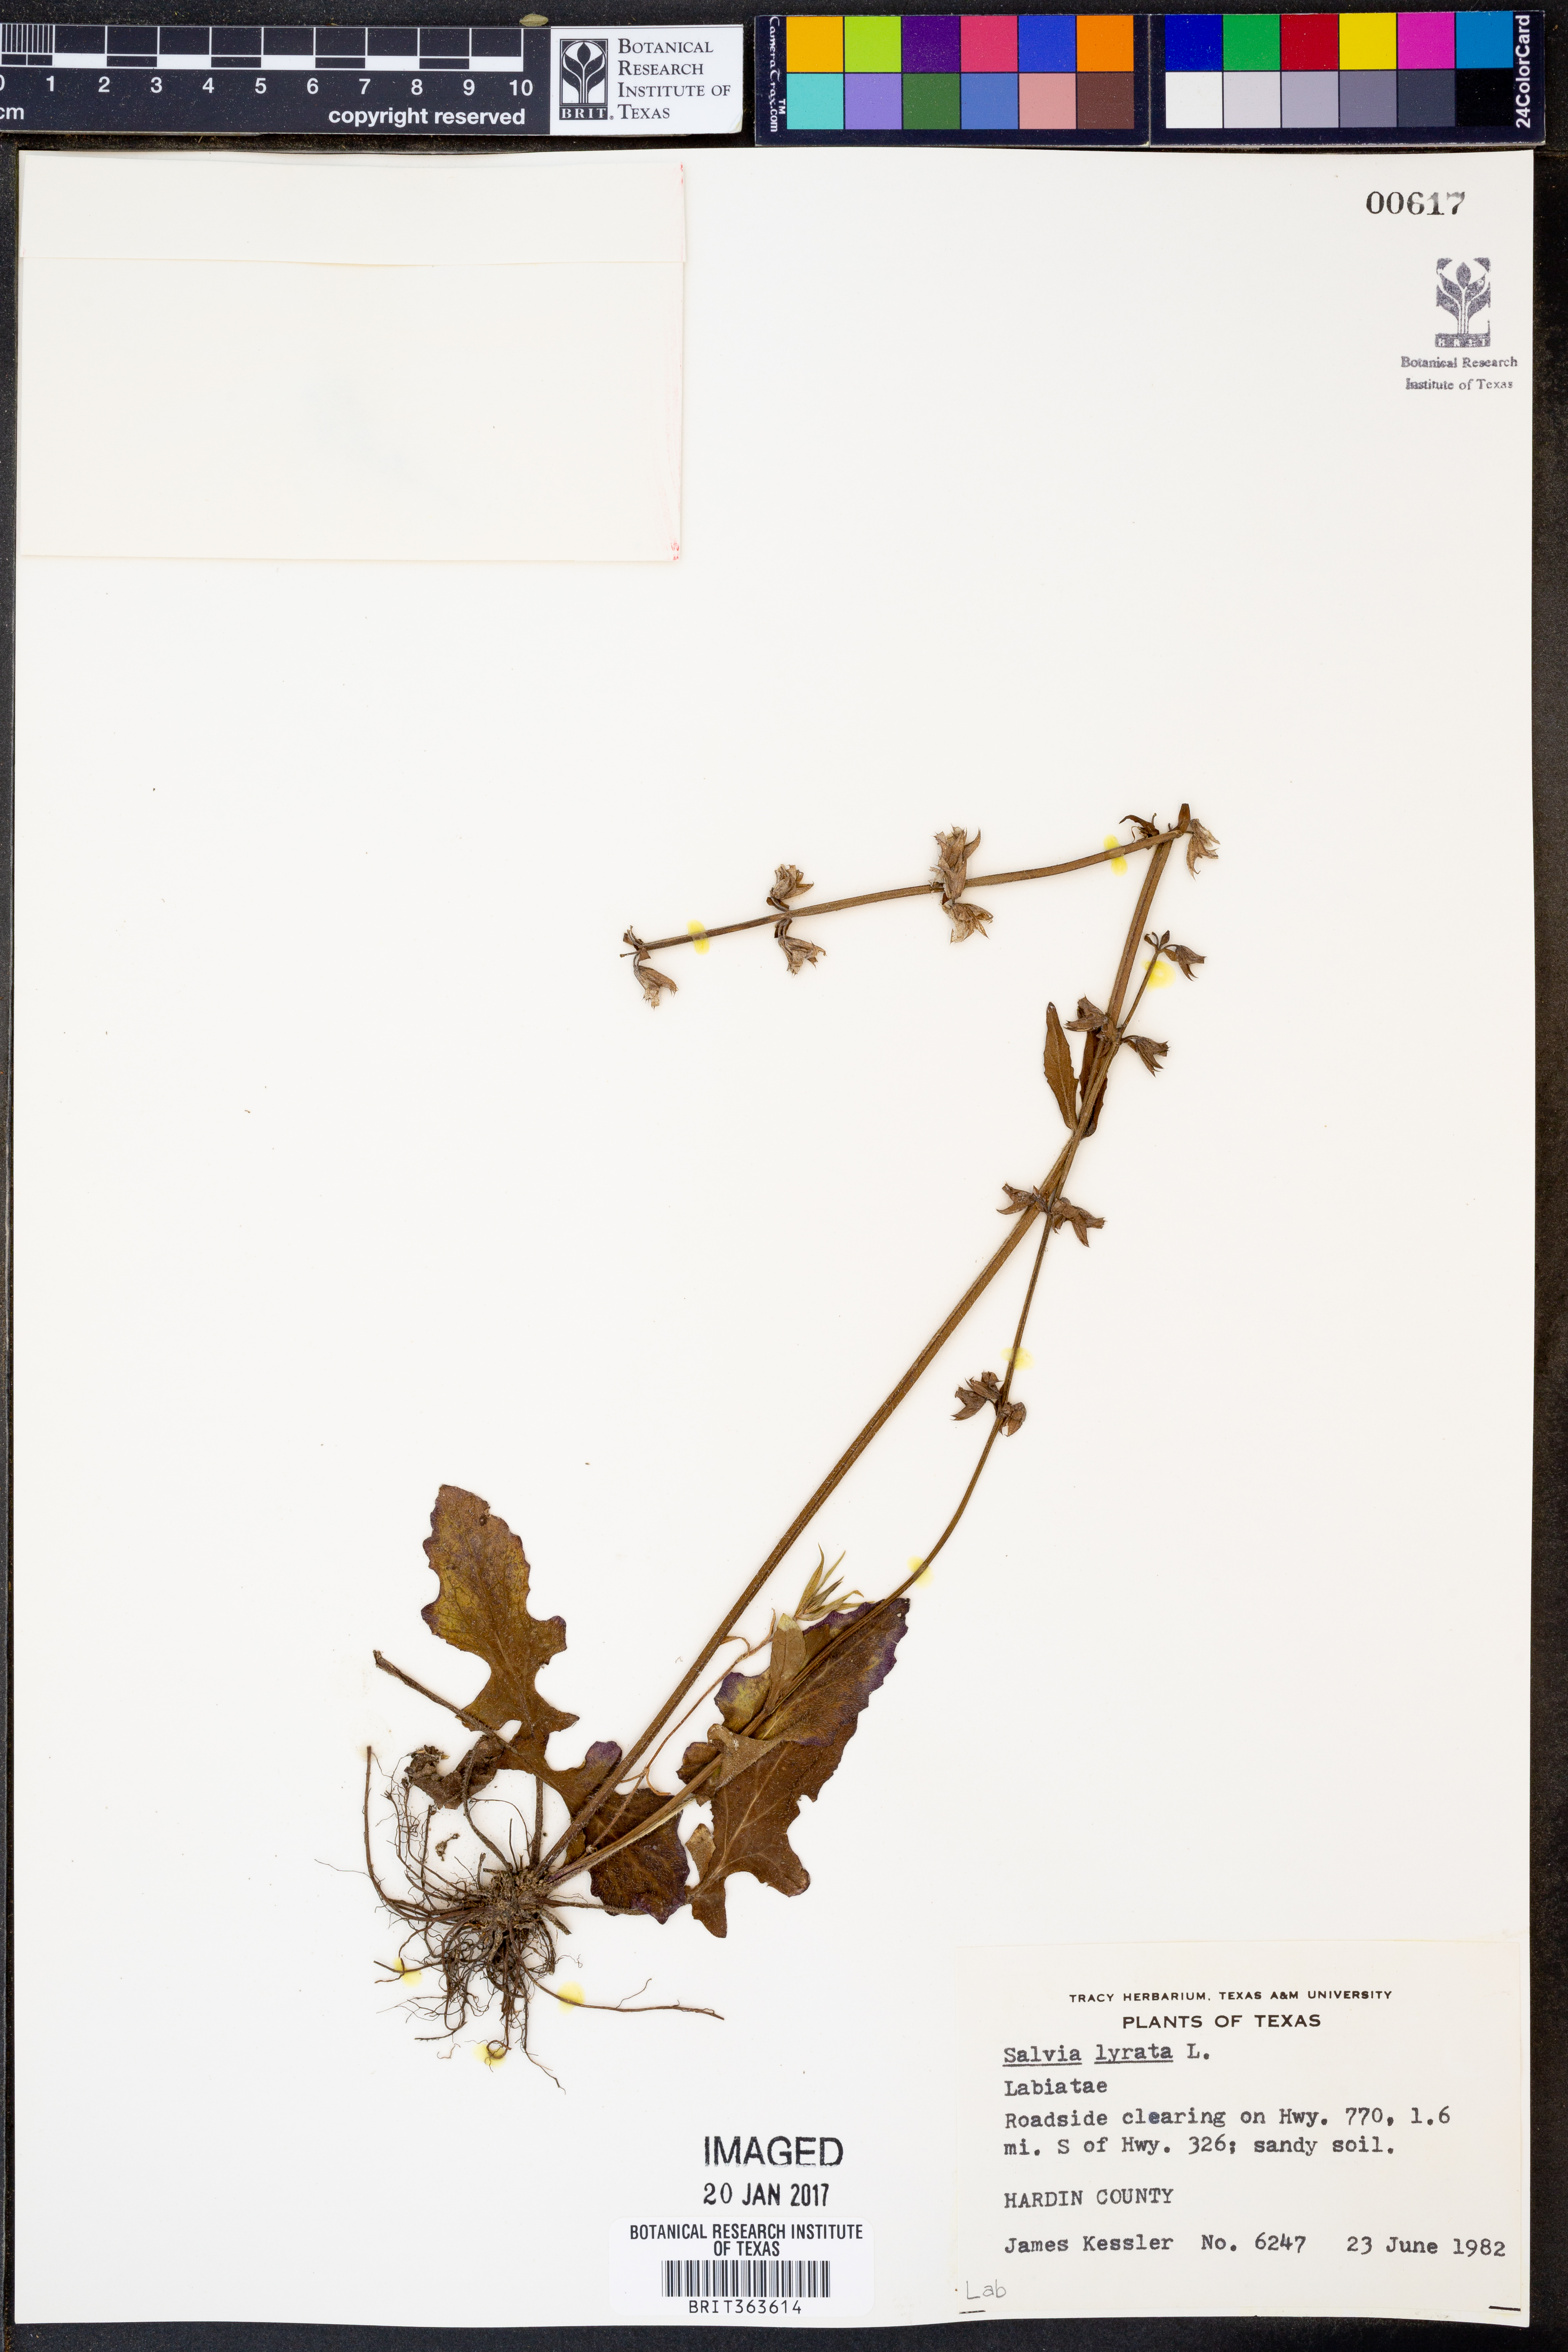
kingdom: Plantae
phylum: Tracheophyta
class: Magnoliopsida
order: Lamiales
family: Lamiaceae
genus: Salvia
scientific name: Salvia lyrata
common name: Cancerweed
